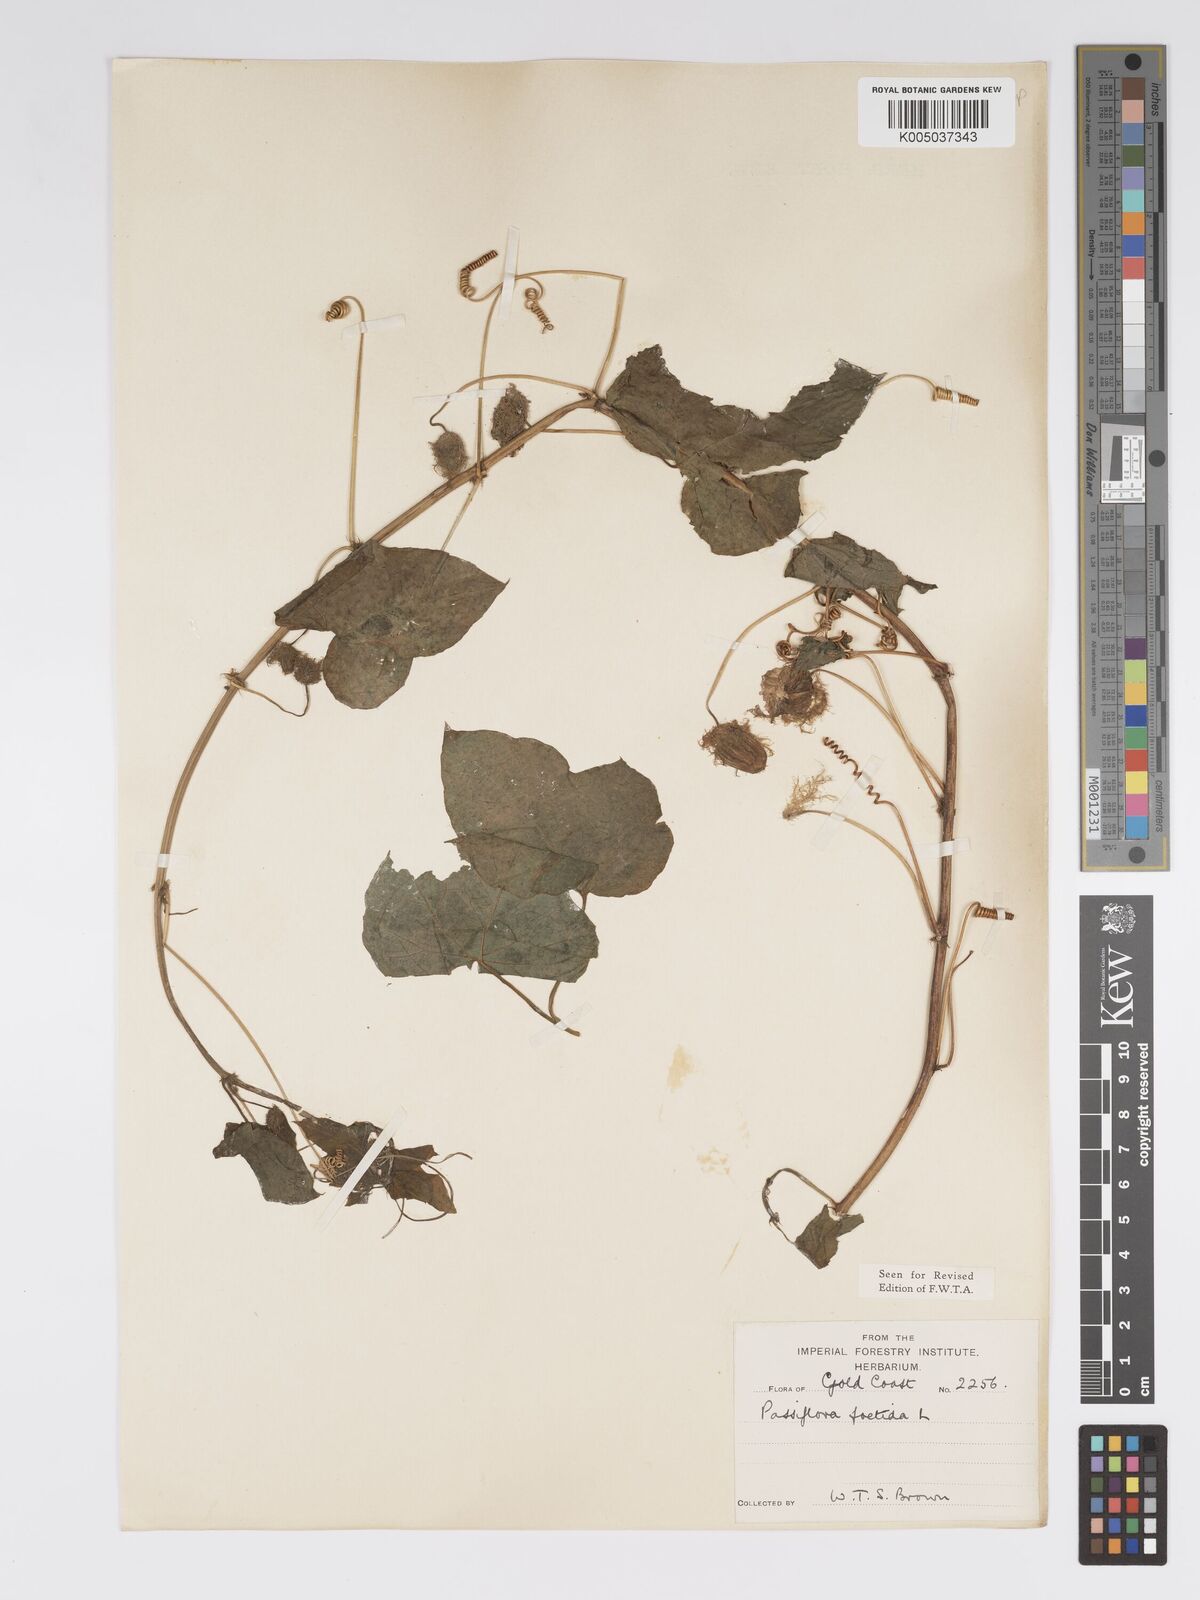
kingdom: Plantae
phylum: Tracheophyta
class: Magnoliopsida
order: Malpighiales
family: Passifloraceae
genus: Passiflora
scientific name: Passiflora foetida
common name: Fetid passionflower
